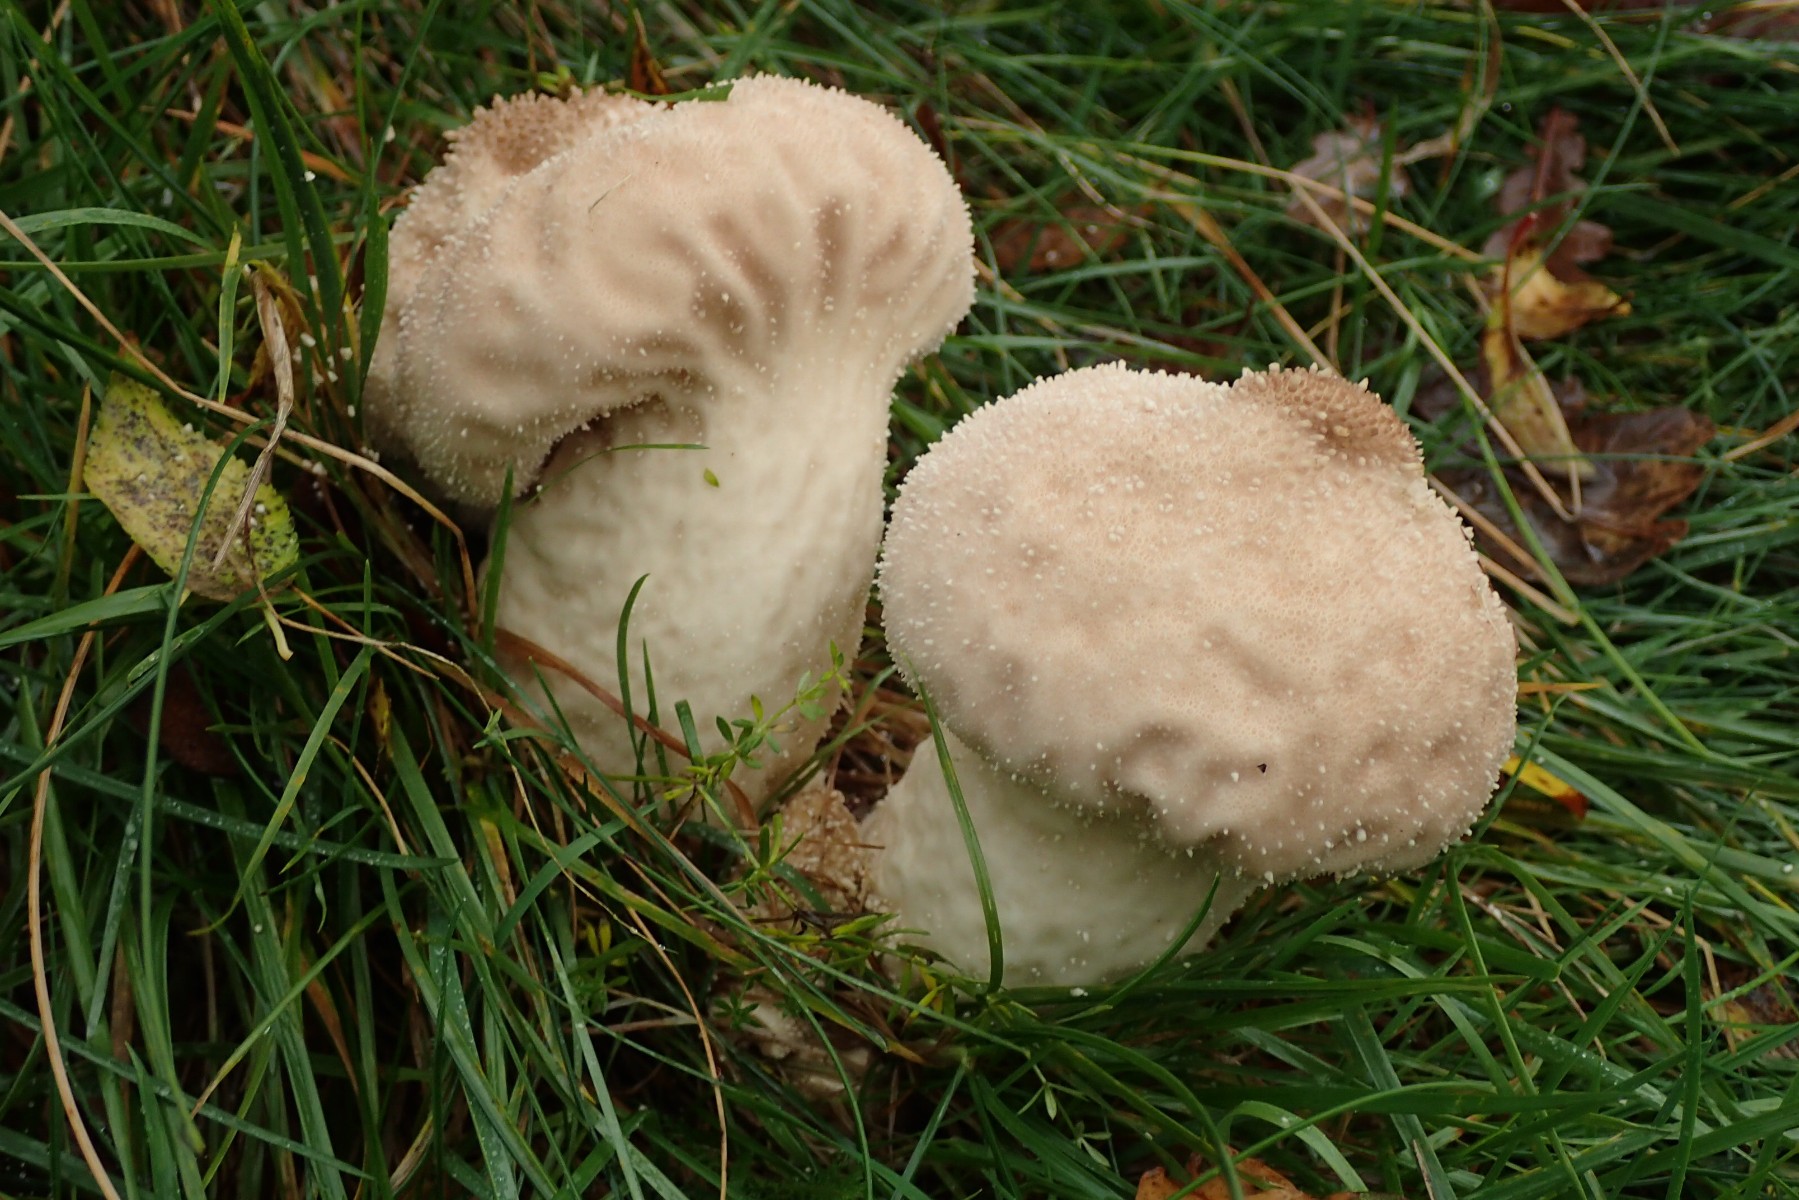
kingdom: Fungi
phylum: Basidiomycota
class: Agaricomycetes
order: Agaricales
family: Lycoperdaceae
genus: Lycoperdon
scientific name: Lycoperdon perlatum
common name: krystal-støvbold
